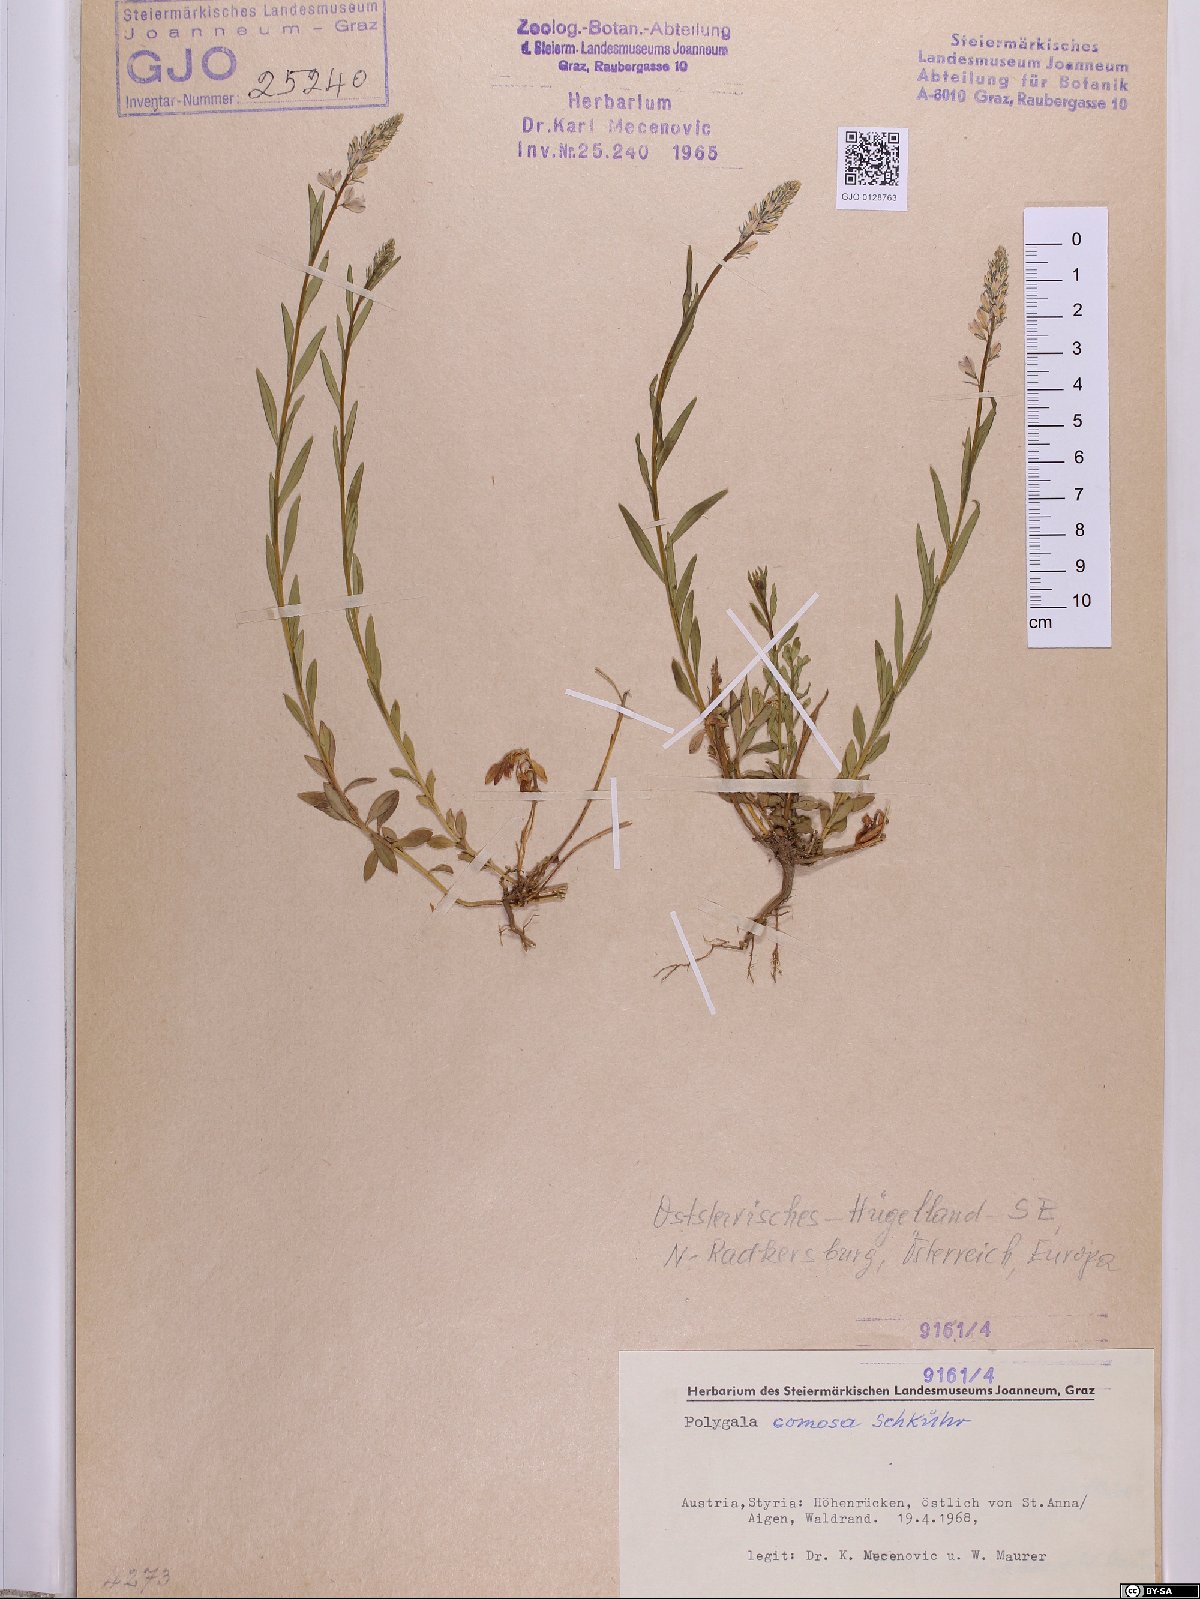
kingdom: Plantae
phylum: Tracheophyta
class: Magnoliopsida
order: Fabales
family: Polygalaceae
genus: Polygala
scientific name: Polygala comosa
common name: Tufted milkwort
